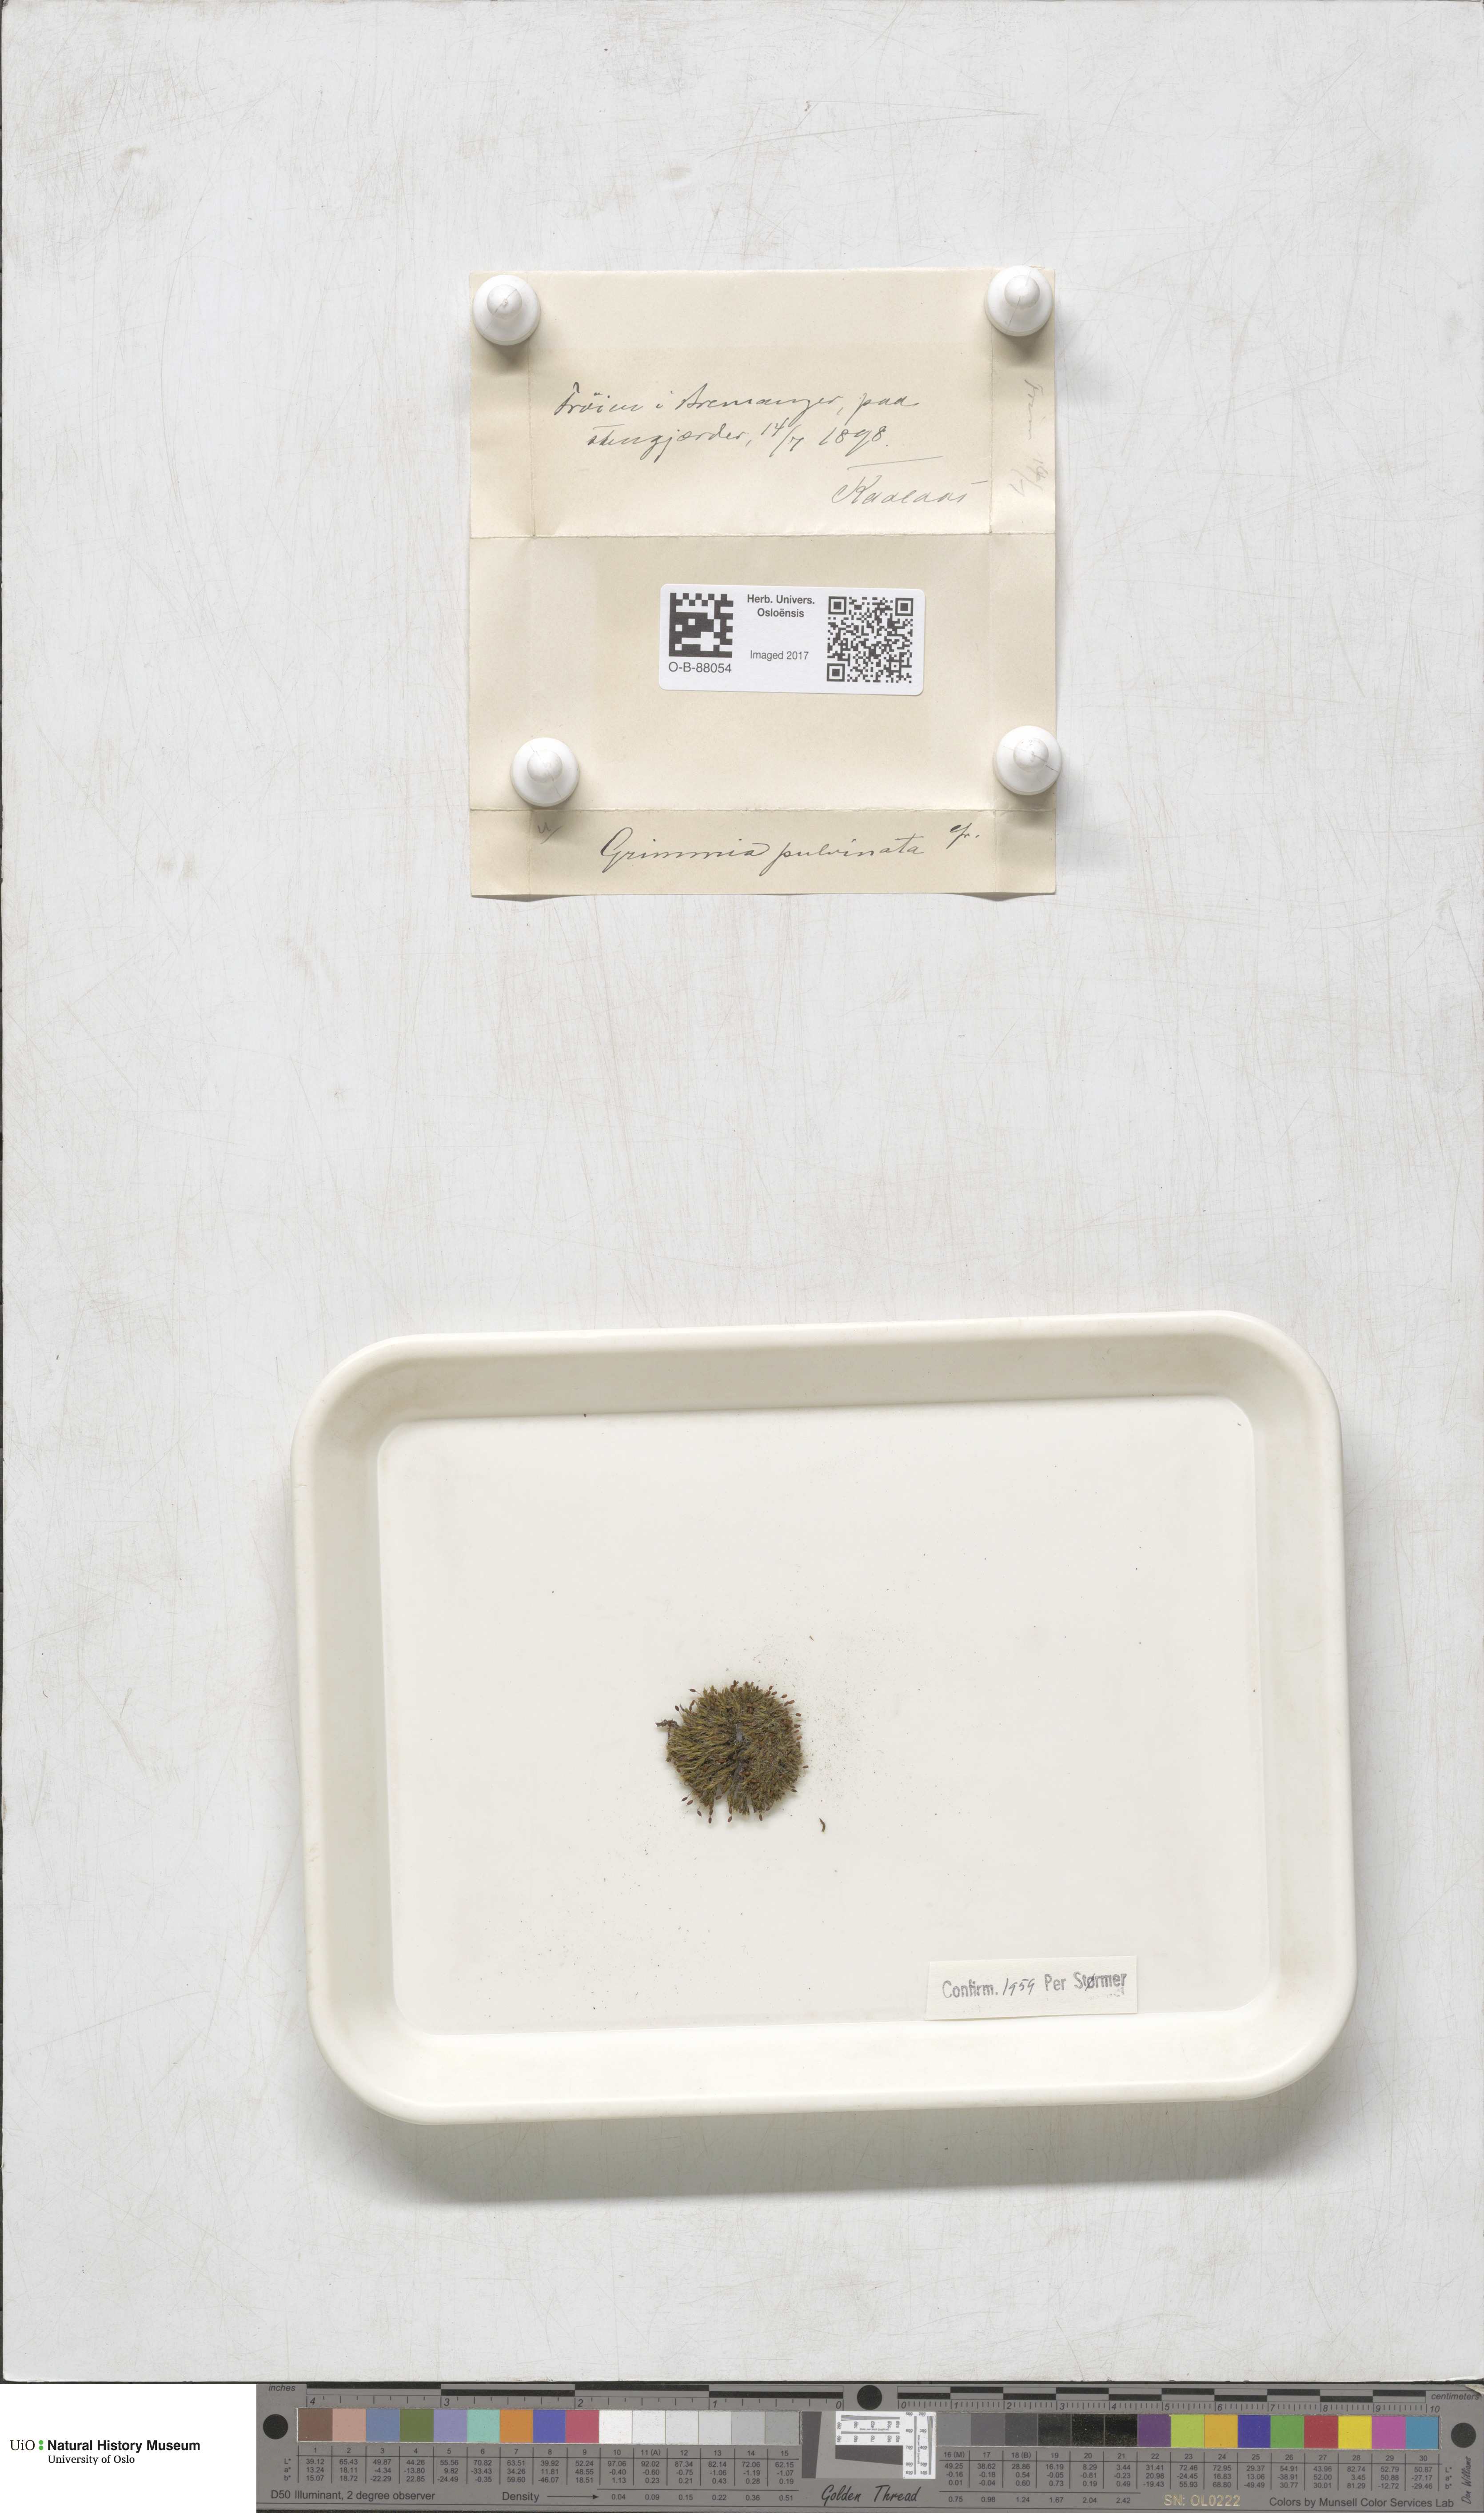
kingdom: Plantae
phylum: Bryophyta
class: Bryopsida
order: Grimmiales
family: Grimmiaceae
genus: Grimmia
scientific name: Grimmia pulvinata
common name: Grey-cushioned grimmia
